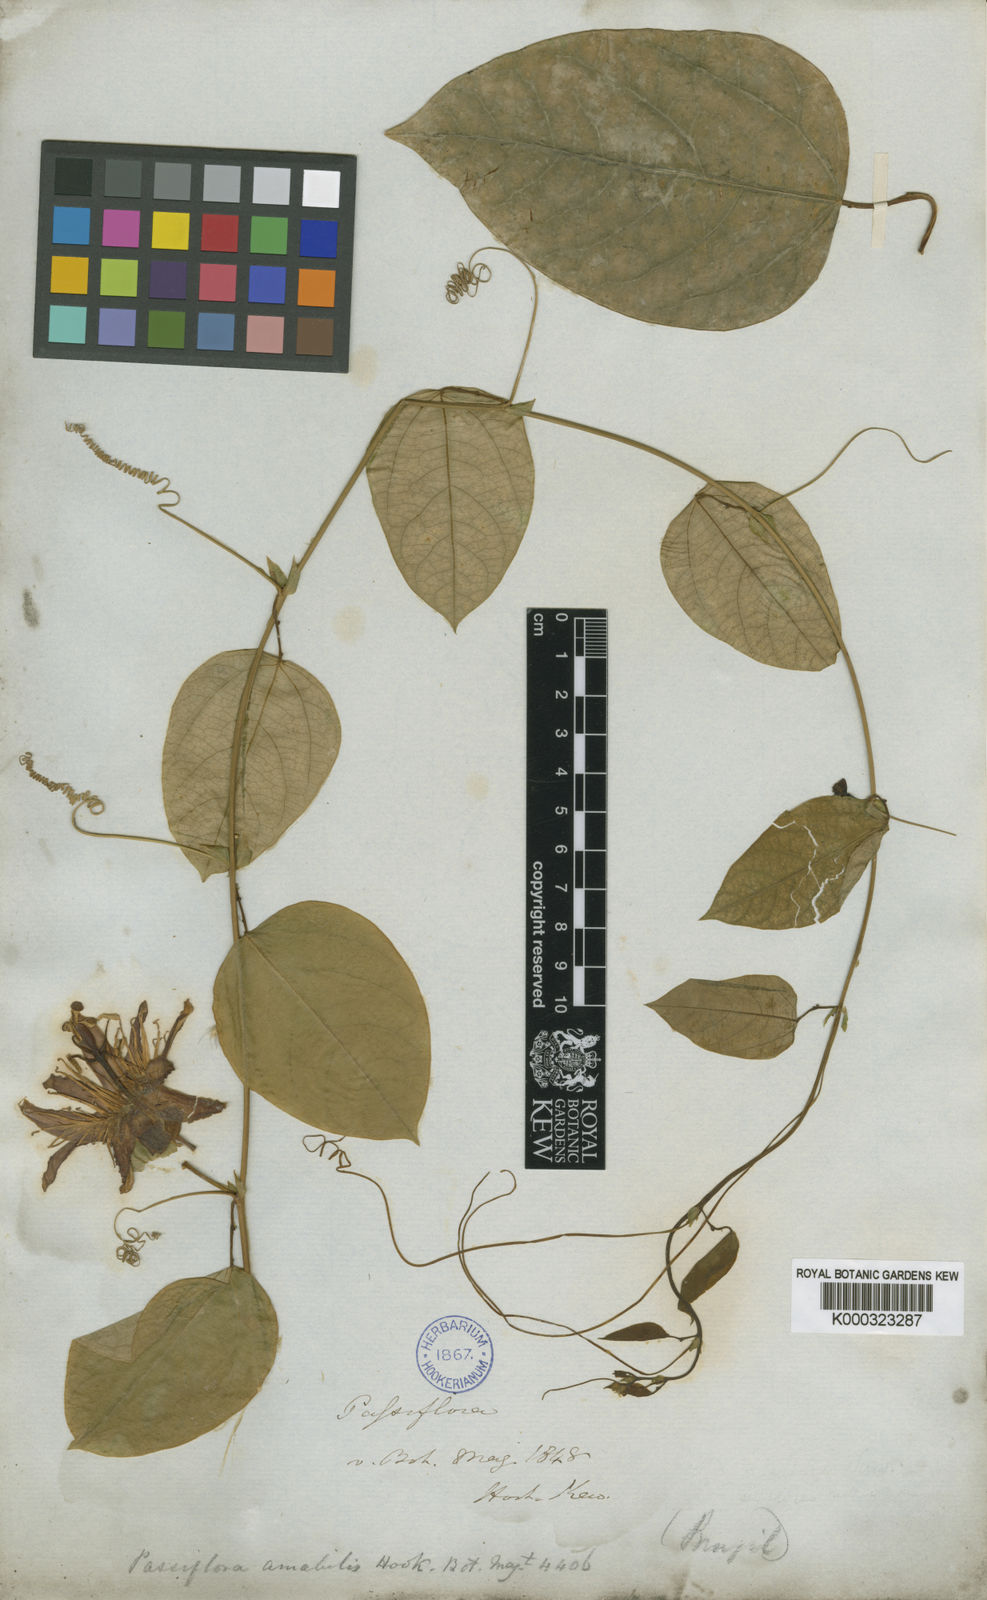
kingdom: Plantae
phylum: Tracheophyta
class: Magnoliopsida
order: Malpighiales
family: Passifloraceae
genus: Passiflora
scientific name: Passiflora
